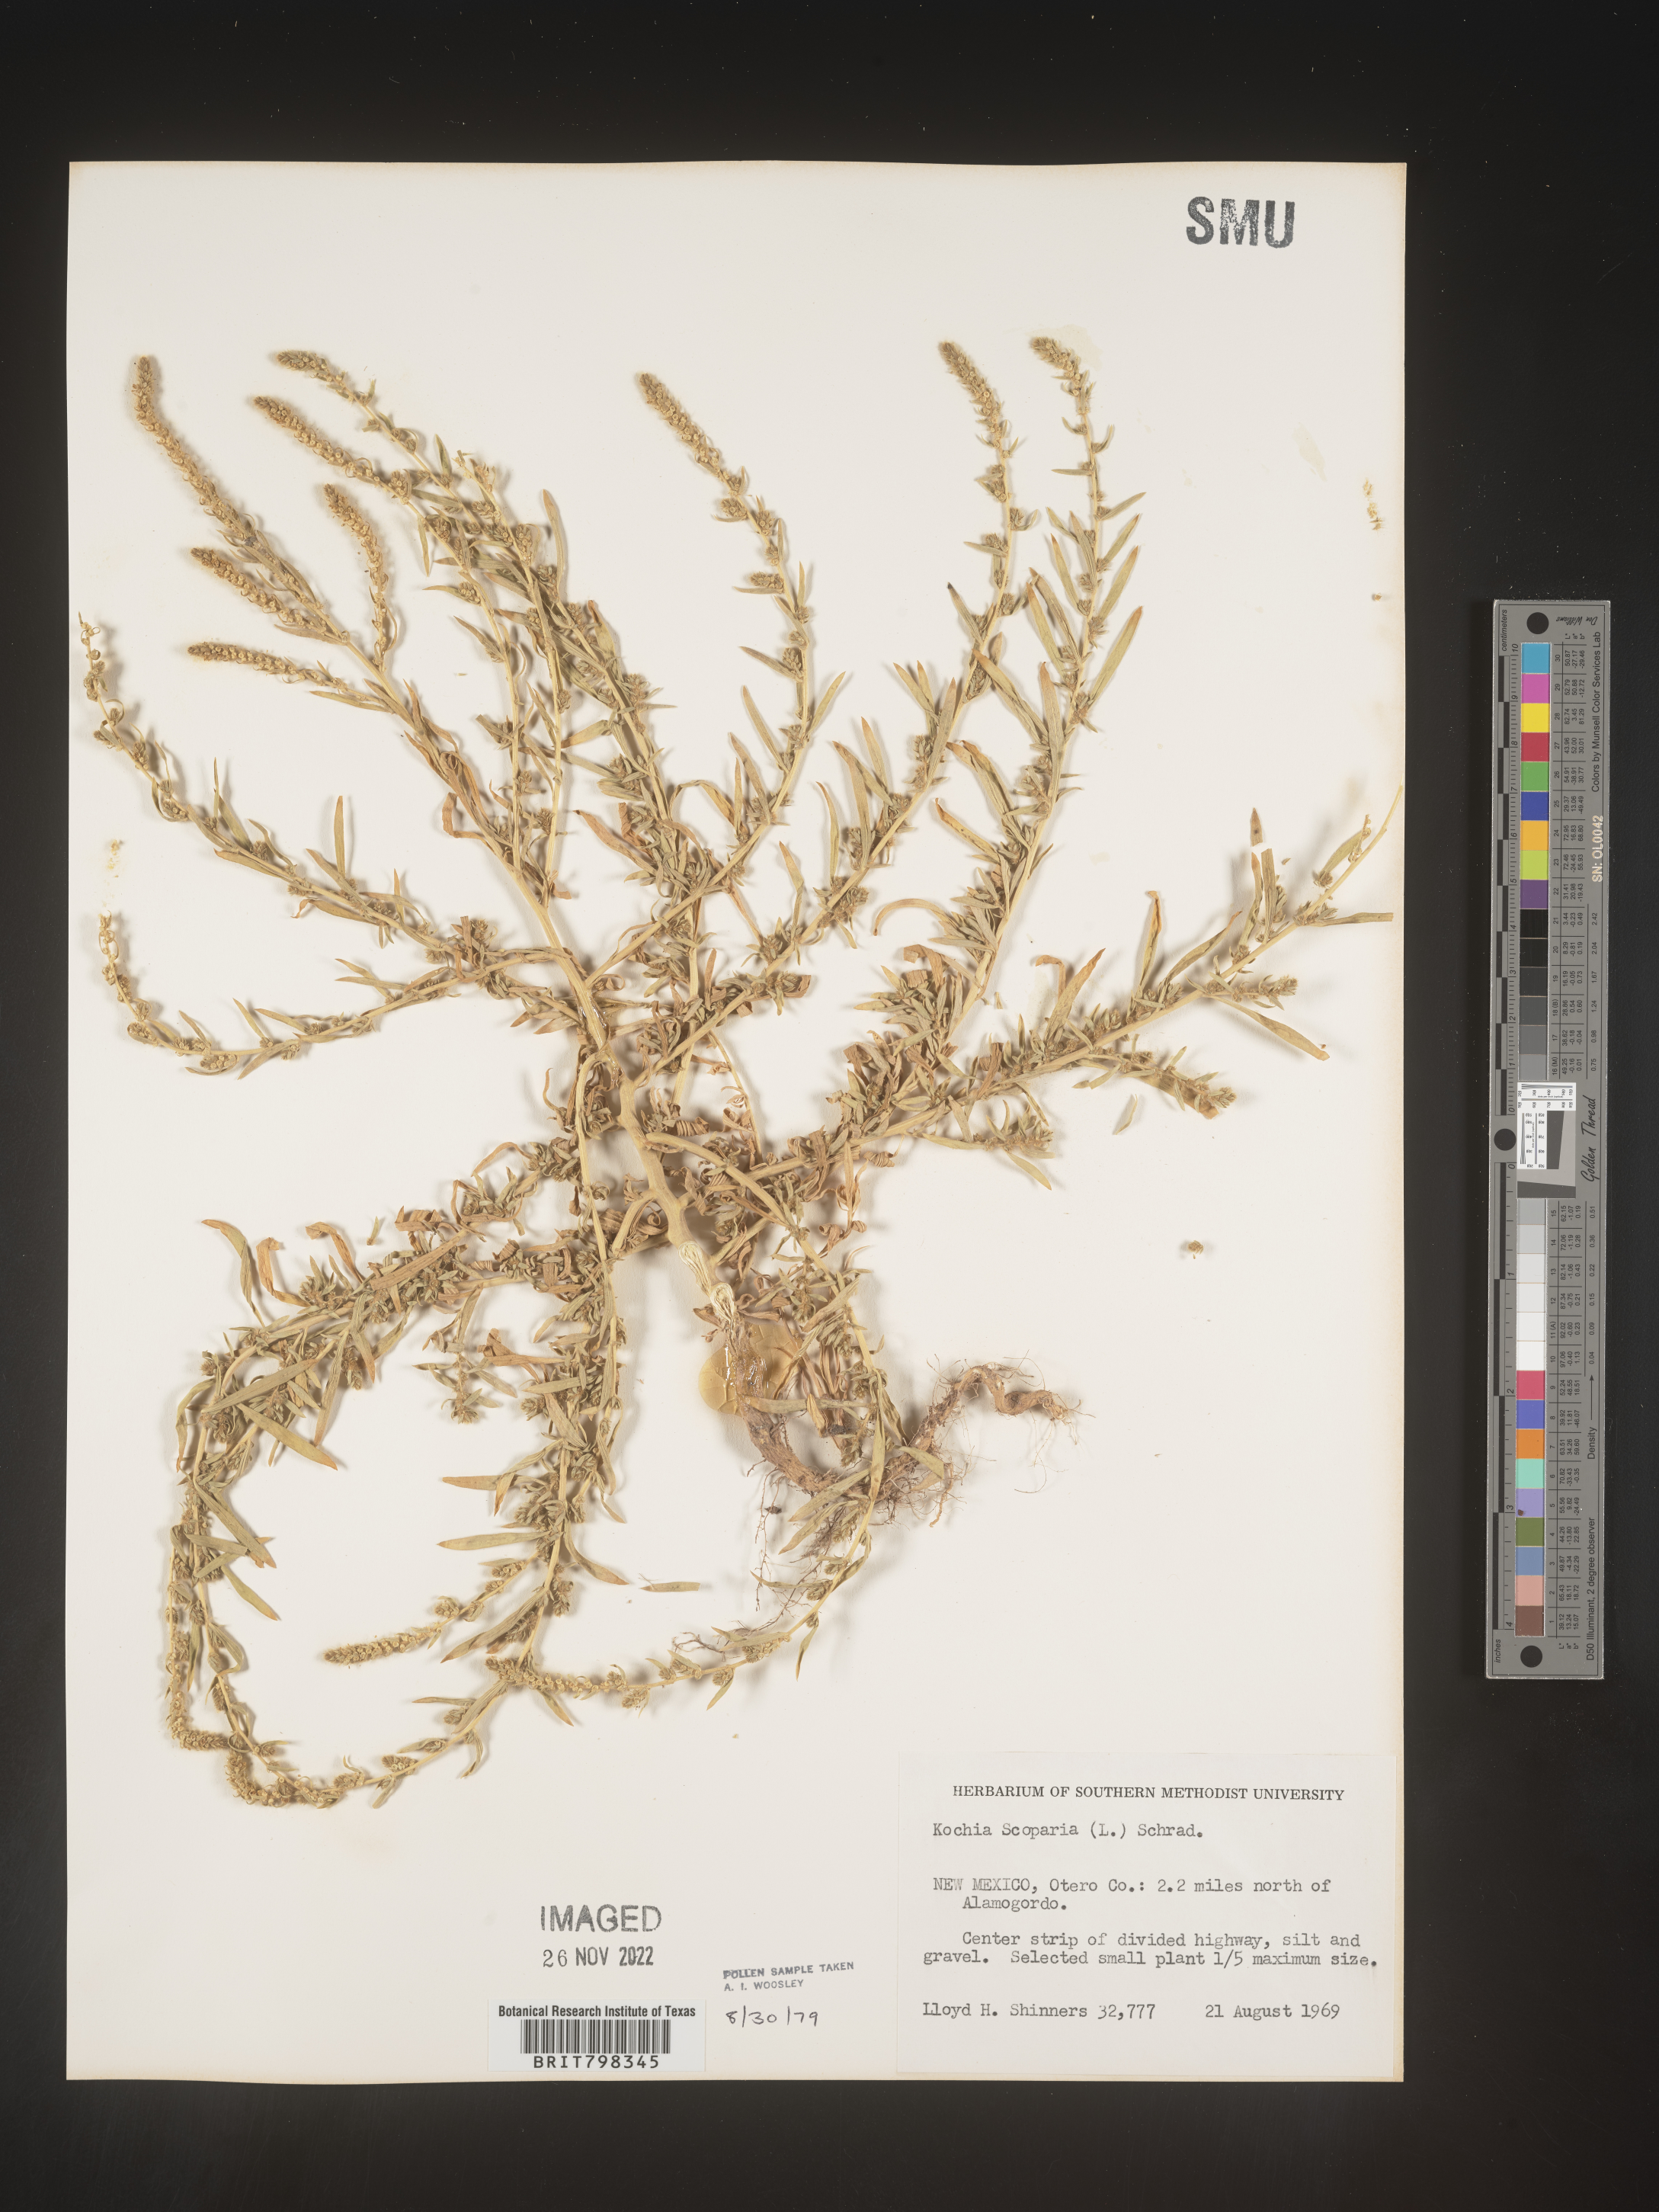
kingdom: Plantae
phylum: Tracheophyta
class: Magnoliopsida
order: Caryophyllales
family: Amaranthaceae
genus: Bassia
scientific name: Bassia
